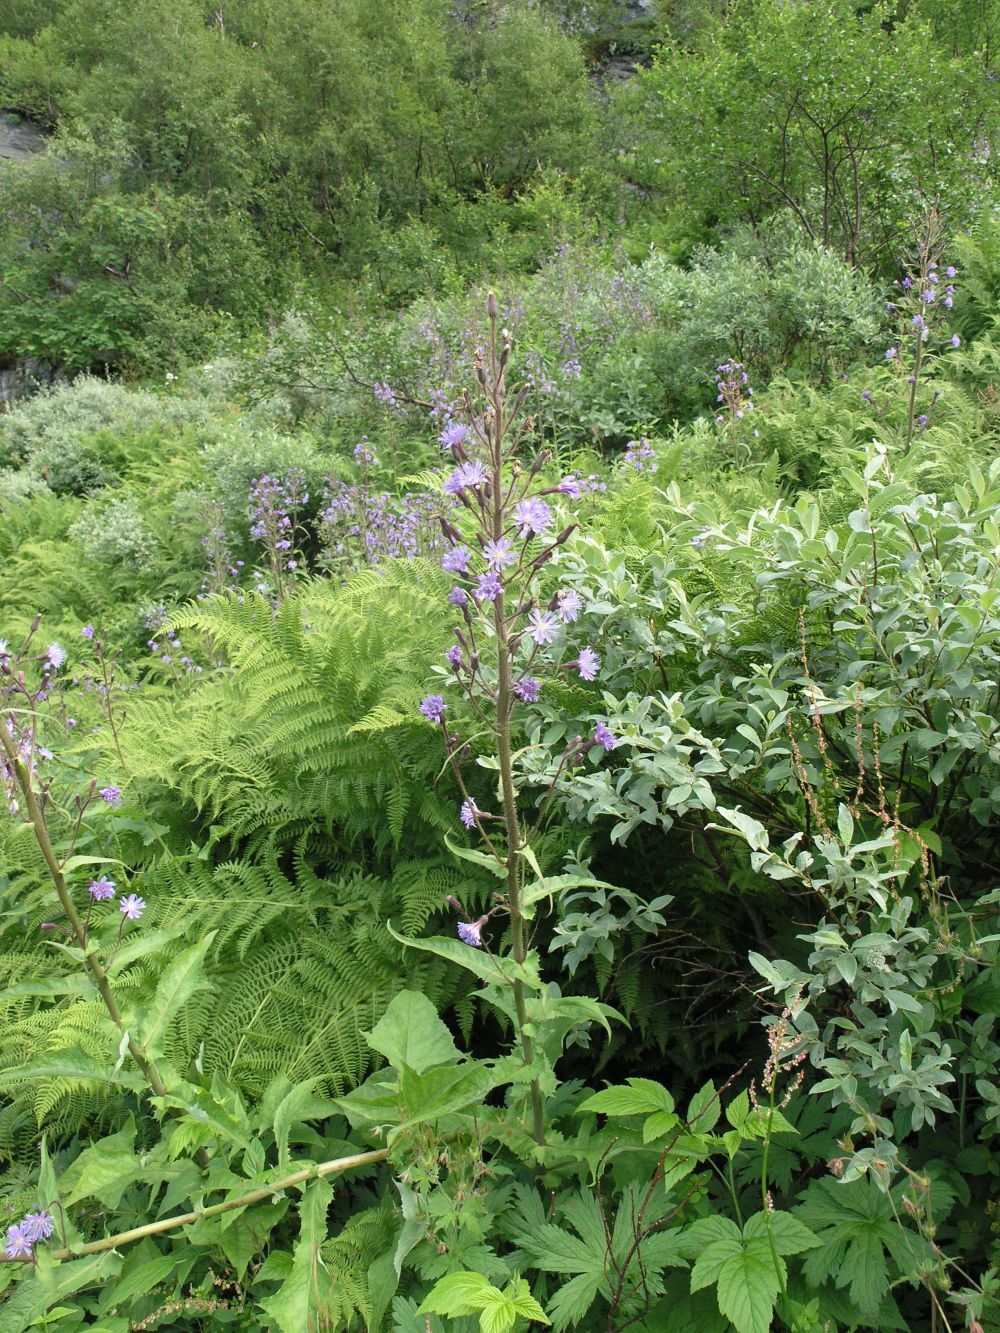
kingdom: Plantae
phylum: Tracheophyta
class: Magnoliopsida
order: Asterales
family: Asteraceae
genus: Cicerbita
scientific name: Cicerbita alpina
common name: Alpine blue-sow-thistle
